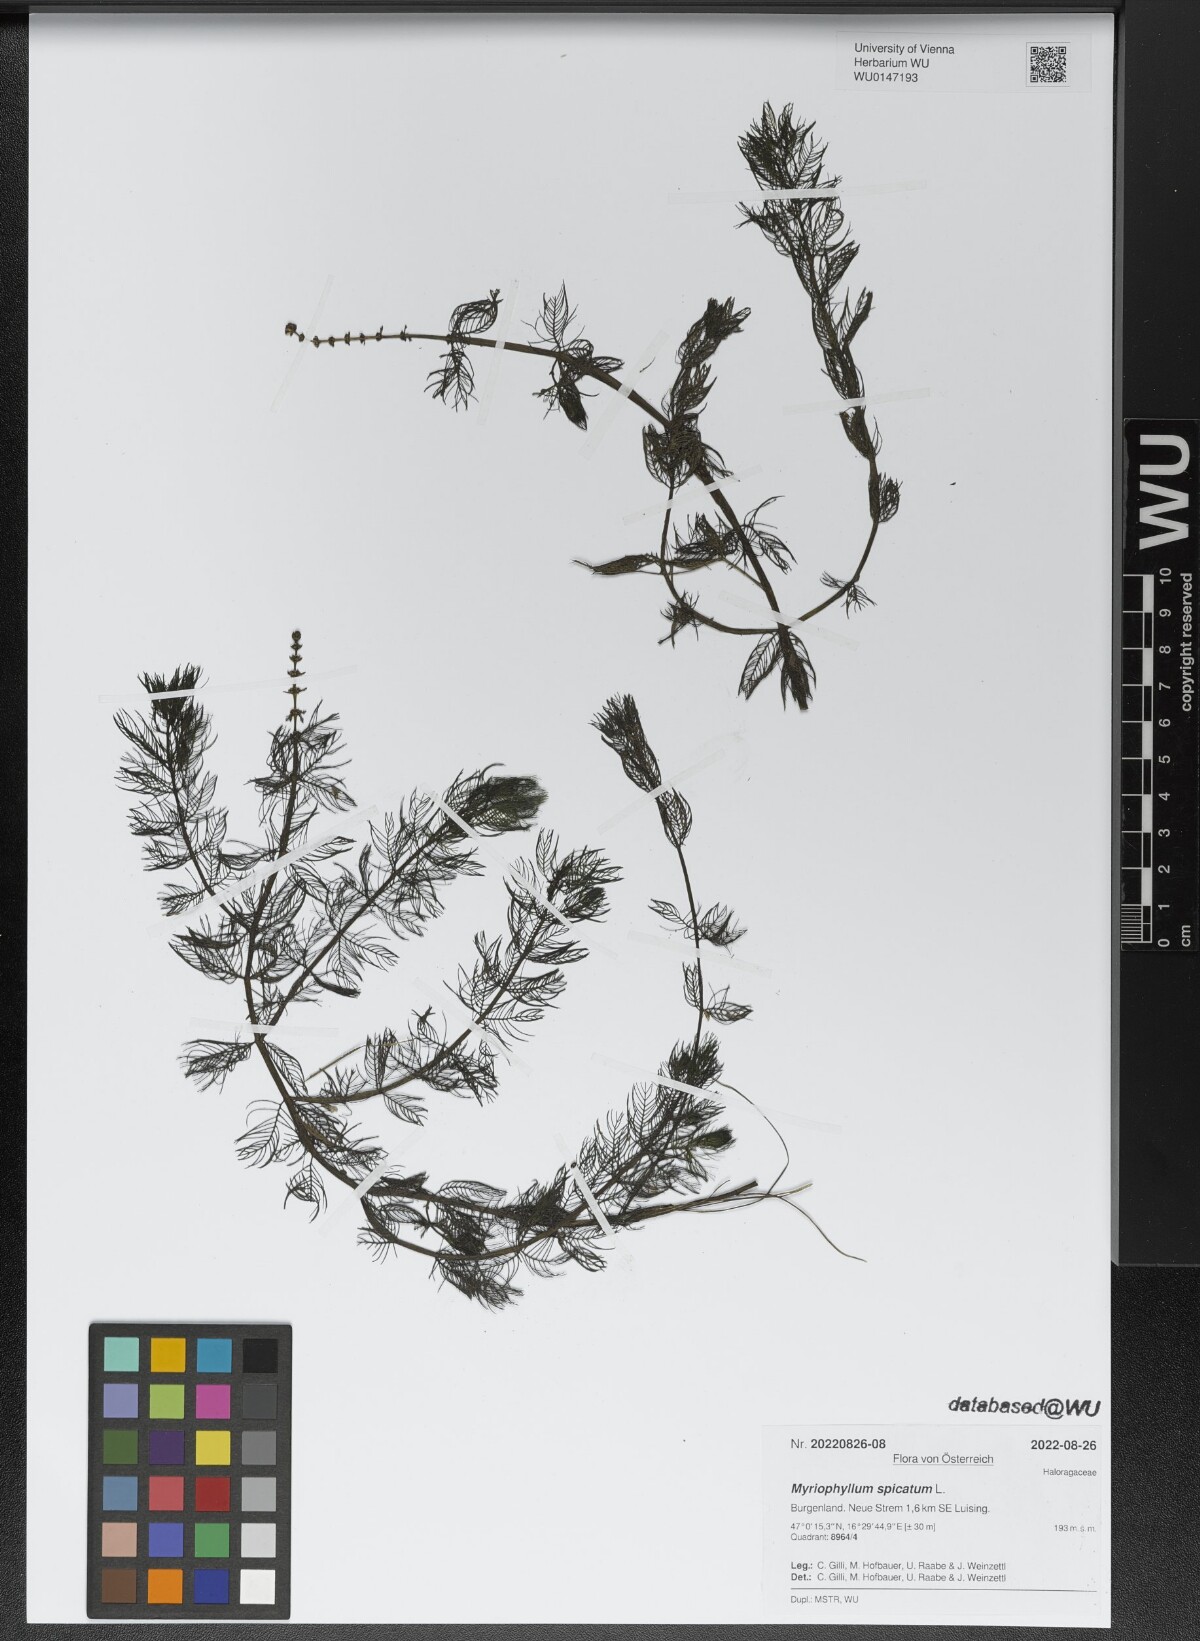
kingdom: Plantae
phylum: Tracheophyta
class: Magnoliopsida
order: Saxifragales
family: Haloragaceae
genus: Myriophyllum
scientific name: Myriophyllum spicatum
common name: Spiked water-milfoil
